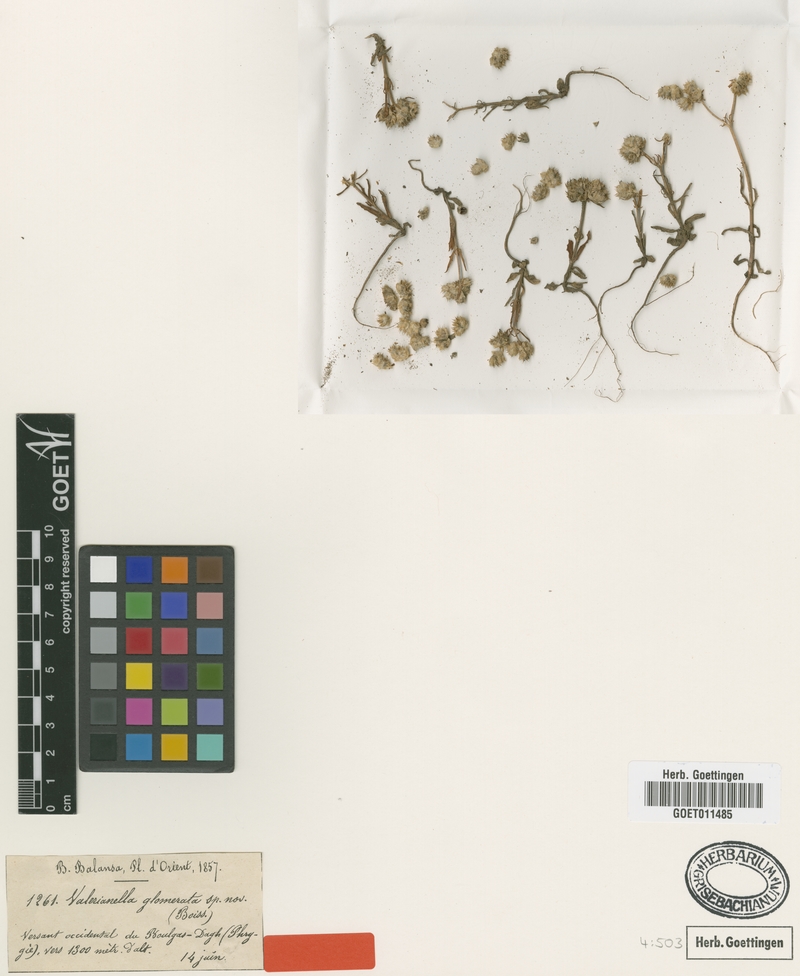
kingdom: Plantae
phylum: Tracheophyta
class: Magnoliopsida
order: Dipsacales
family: Caprifoliaceae
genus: Valerianella
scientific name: Valerianella glomerata
